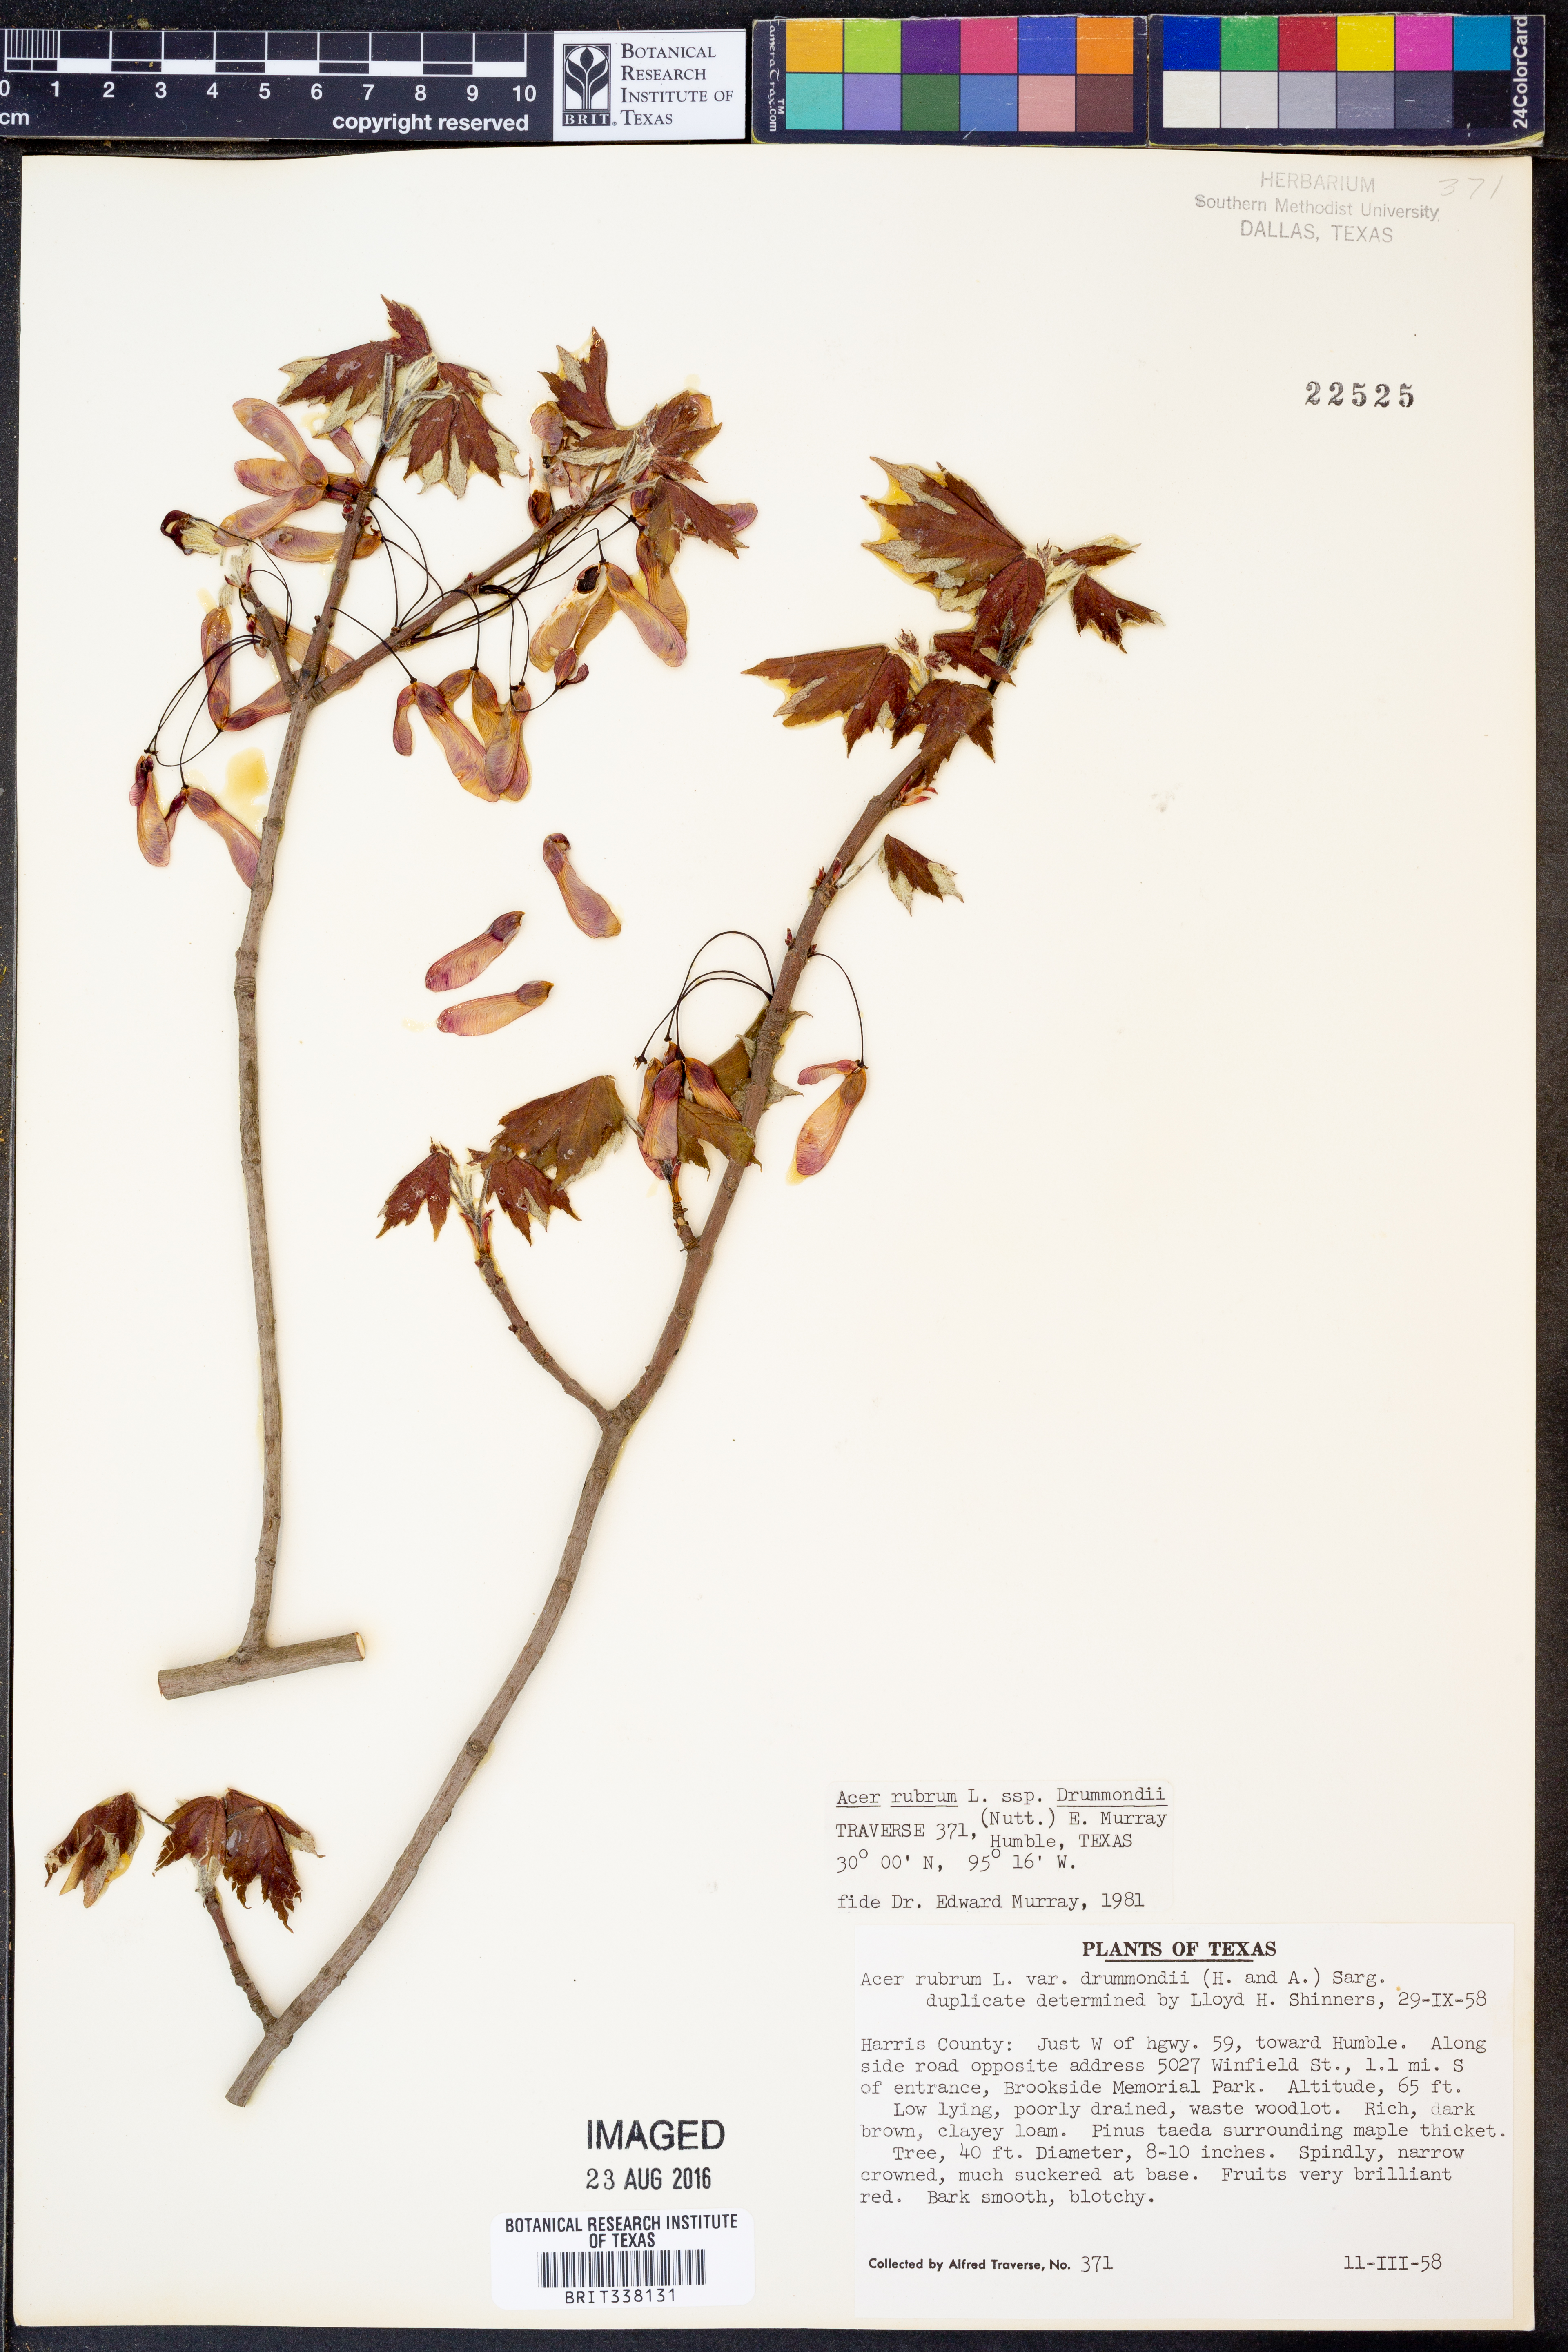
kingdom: Plantae
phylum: Tracheophyta
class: Magnoliopsida
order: Sapindales
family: Sapindaceae
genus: Acer
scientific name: Acer rubrum
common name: Red maple
